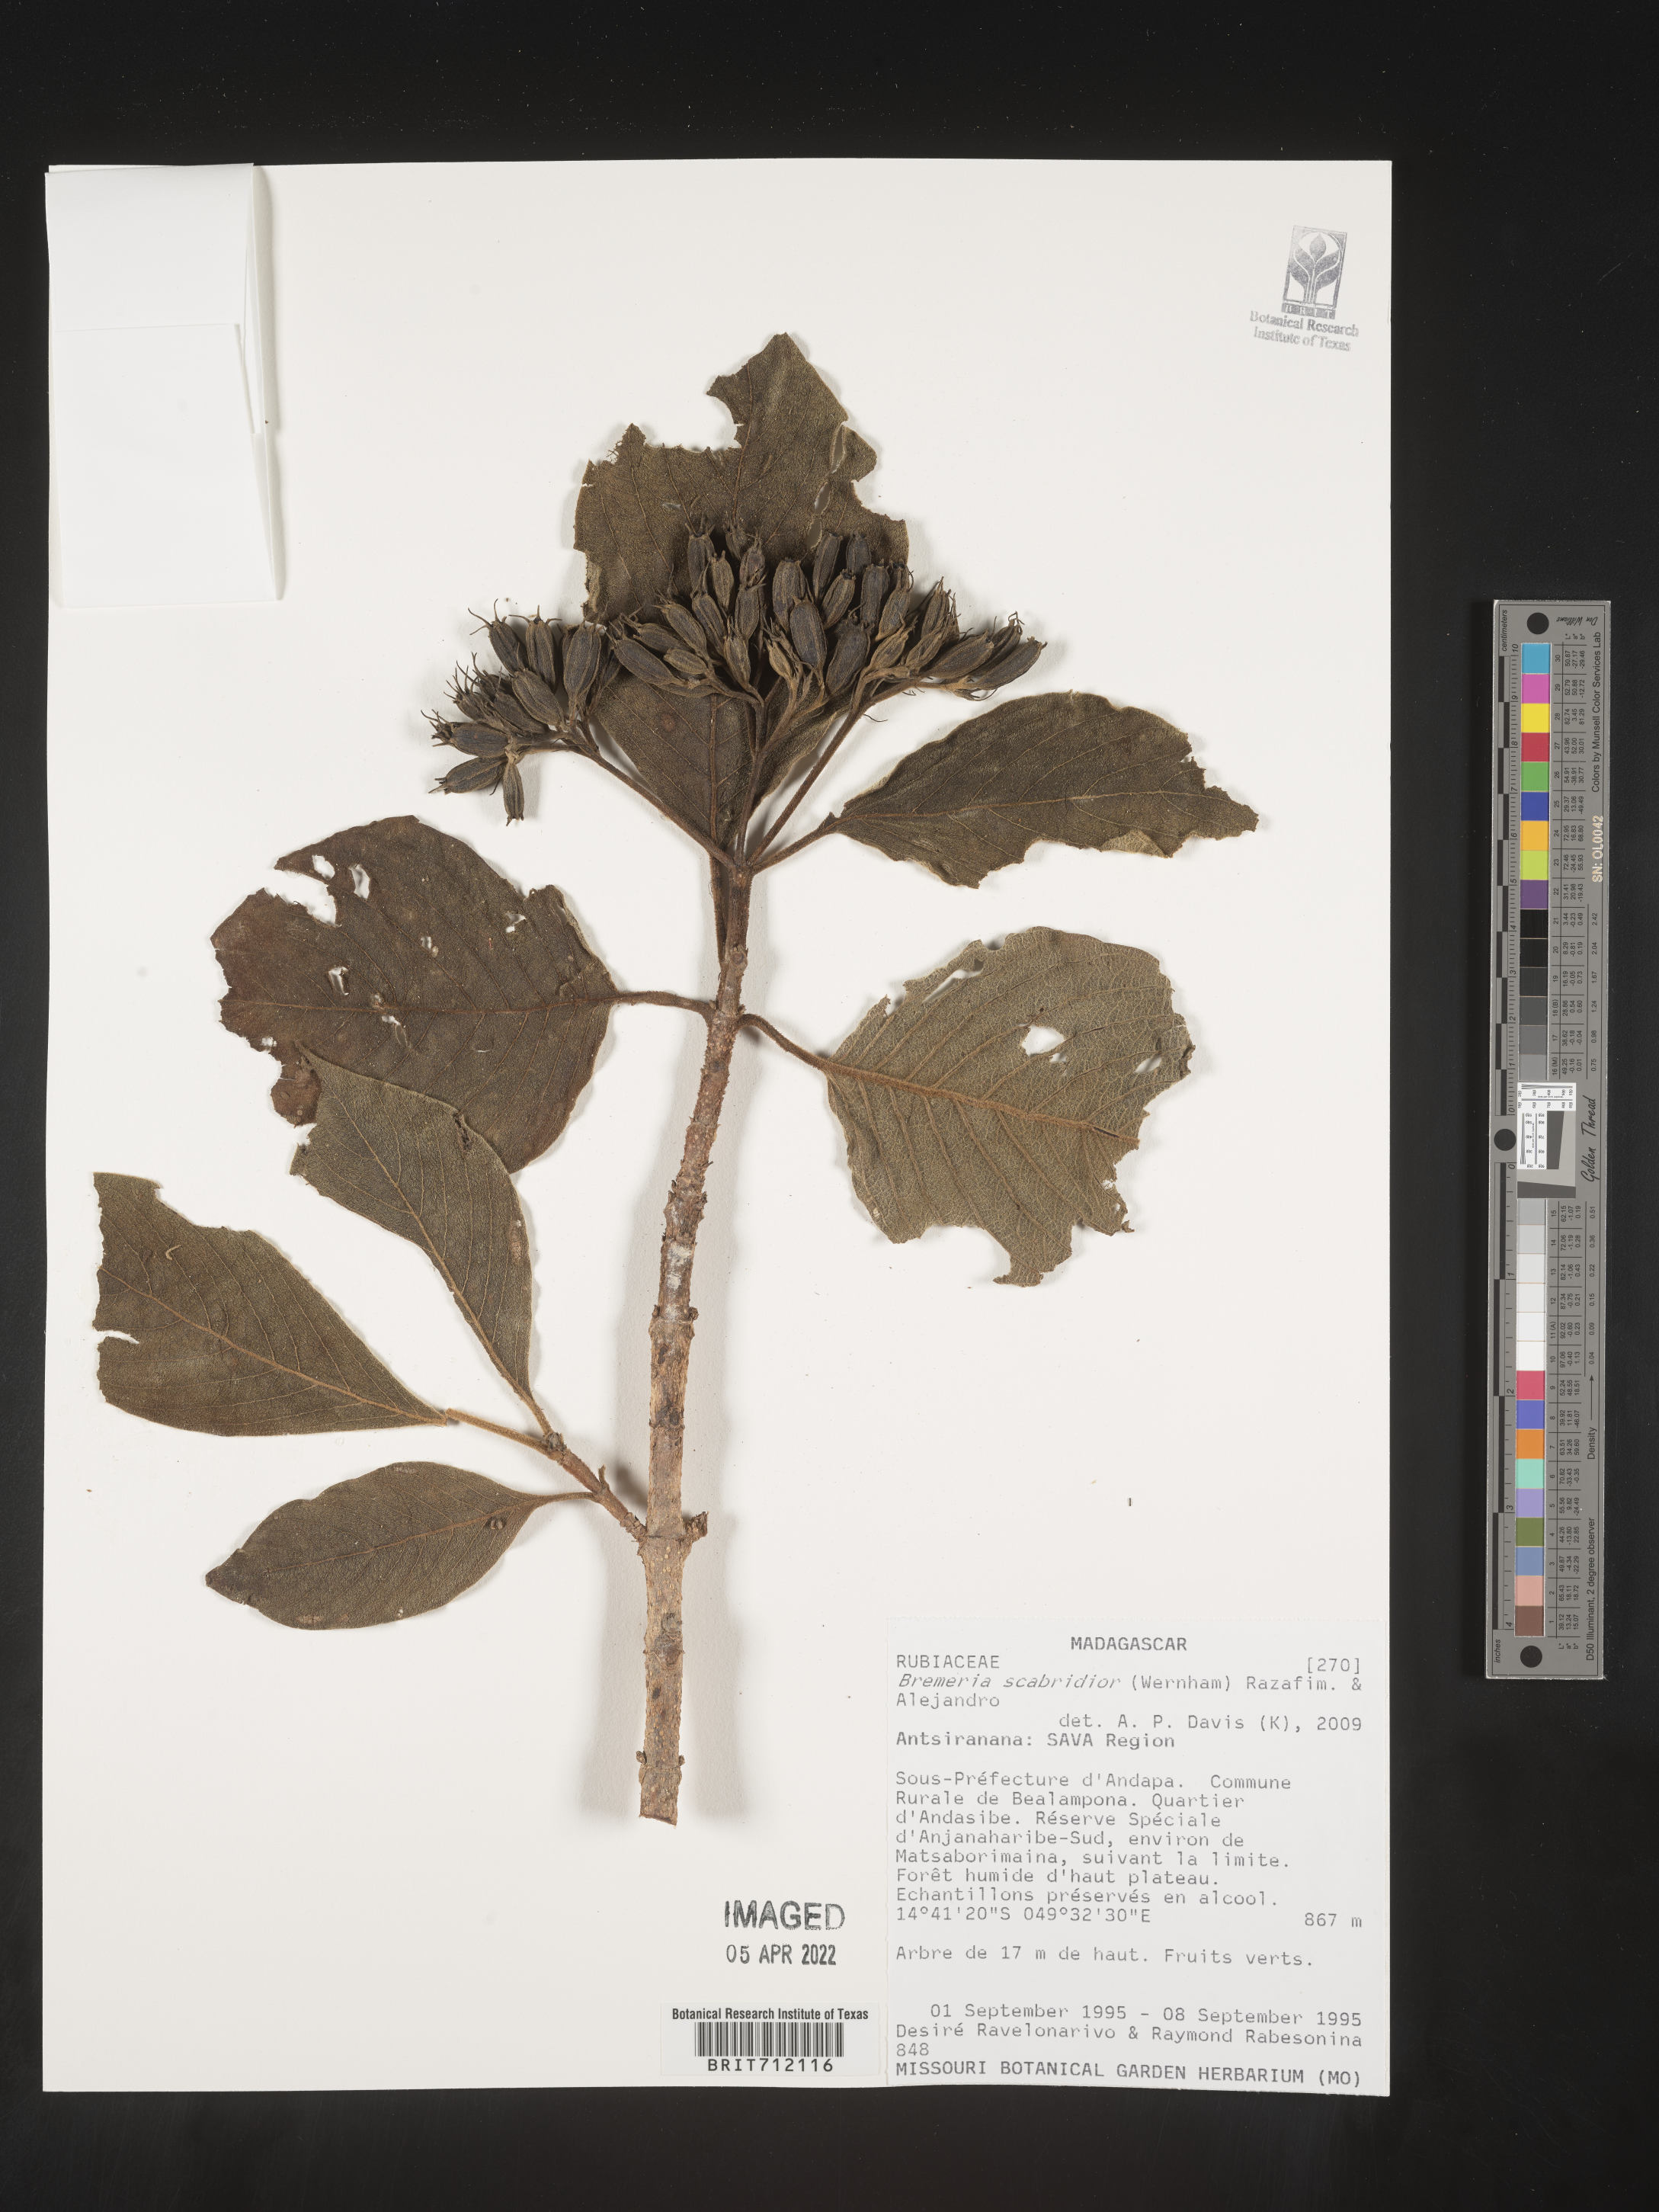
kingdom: Plantae
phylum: Tracheophyta
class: Magnoliopsida
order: Gentianales
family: Rubiaceae
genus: Bremeria
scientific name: Bremeria
